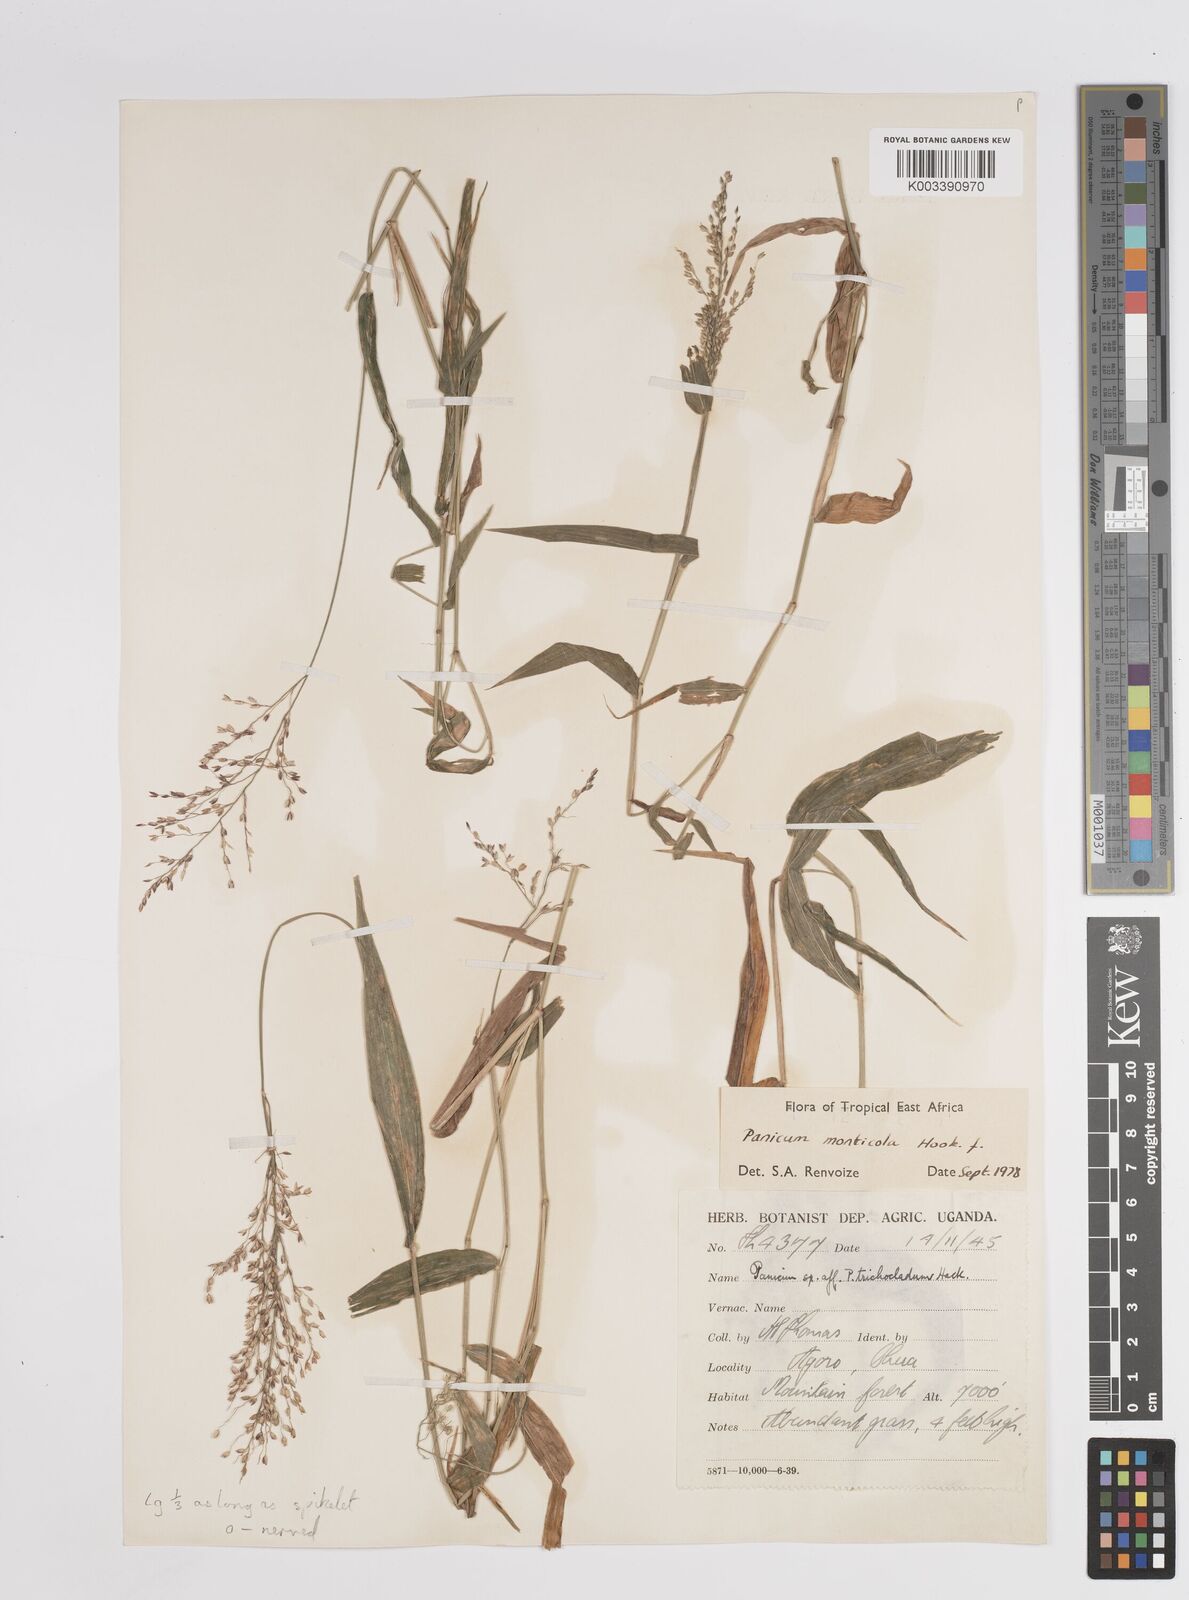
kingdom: Plantae
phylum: Tracheophyta
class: Liliopsida
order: Poales
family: Poaceae
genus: Panicum
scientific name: Panicum
